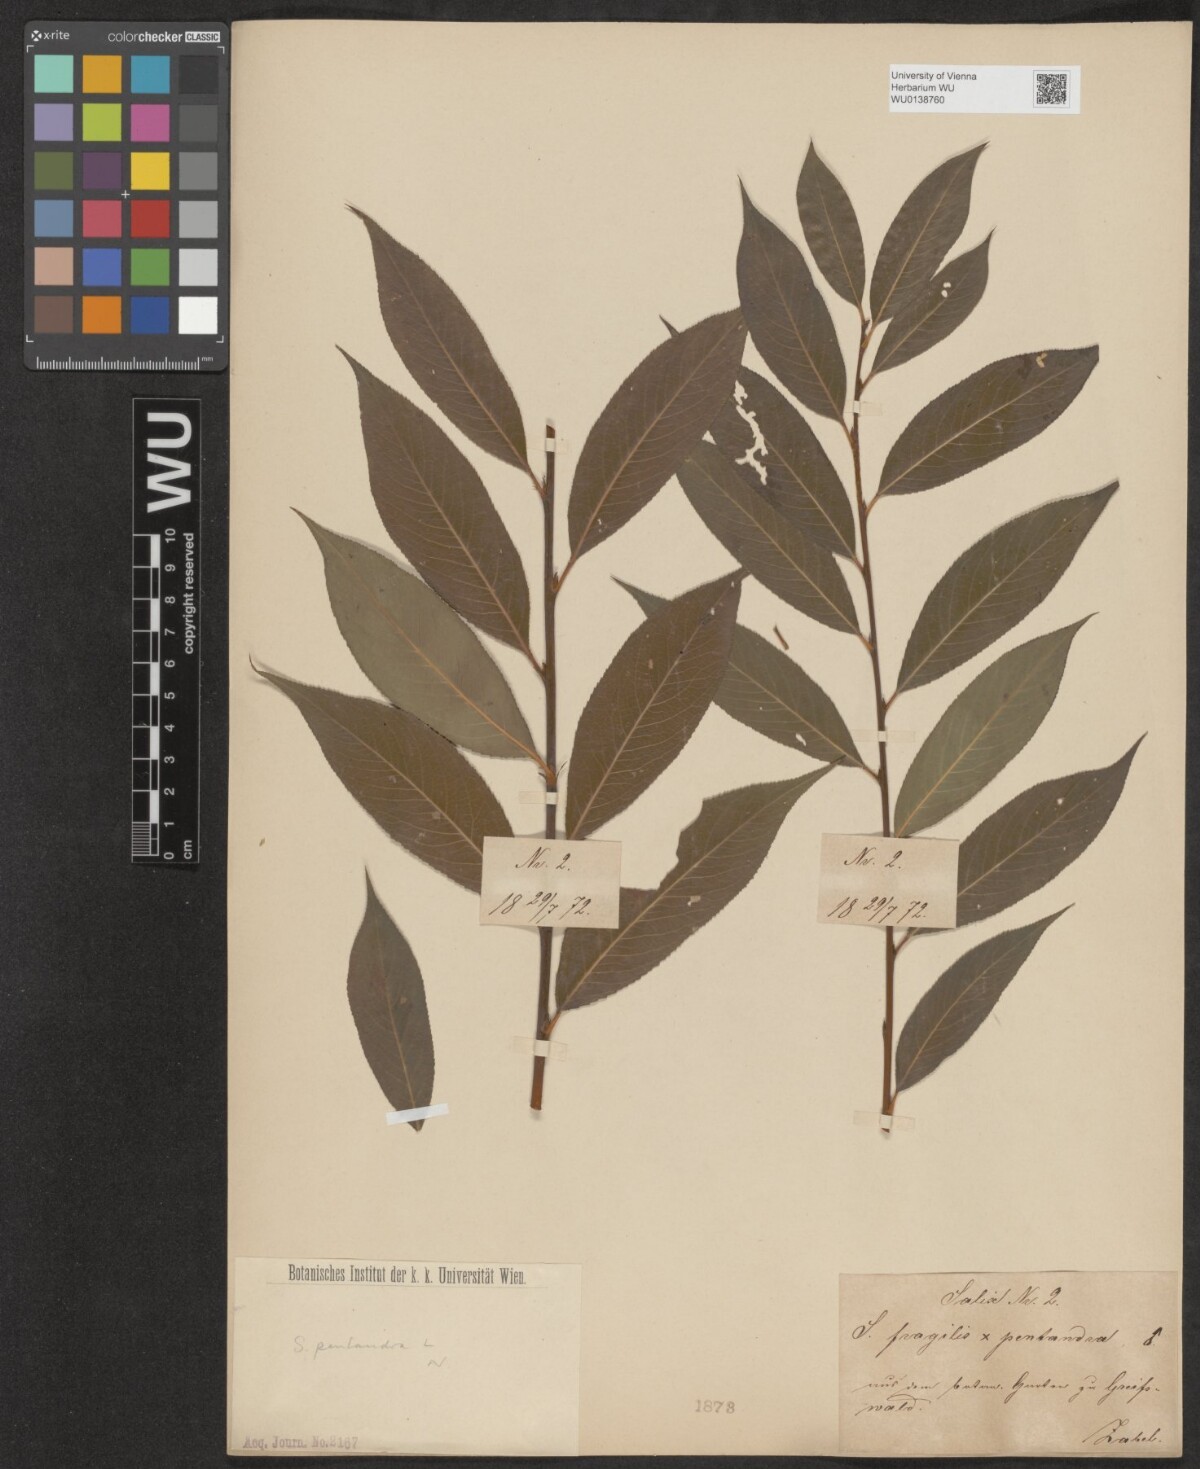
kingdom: Plantae
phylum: Tracheophyta
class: Magnoliopsida
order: Malpighiales
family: Salicaceae
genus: Salix
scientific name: Salix pentandra
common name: Bay willow
